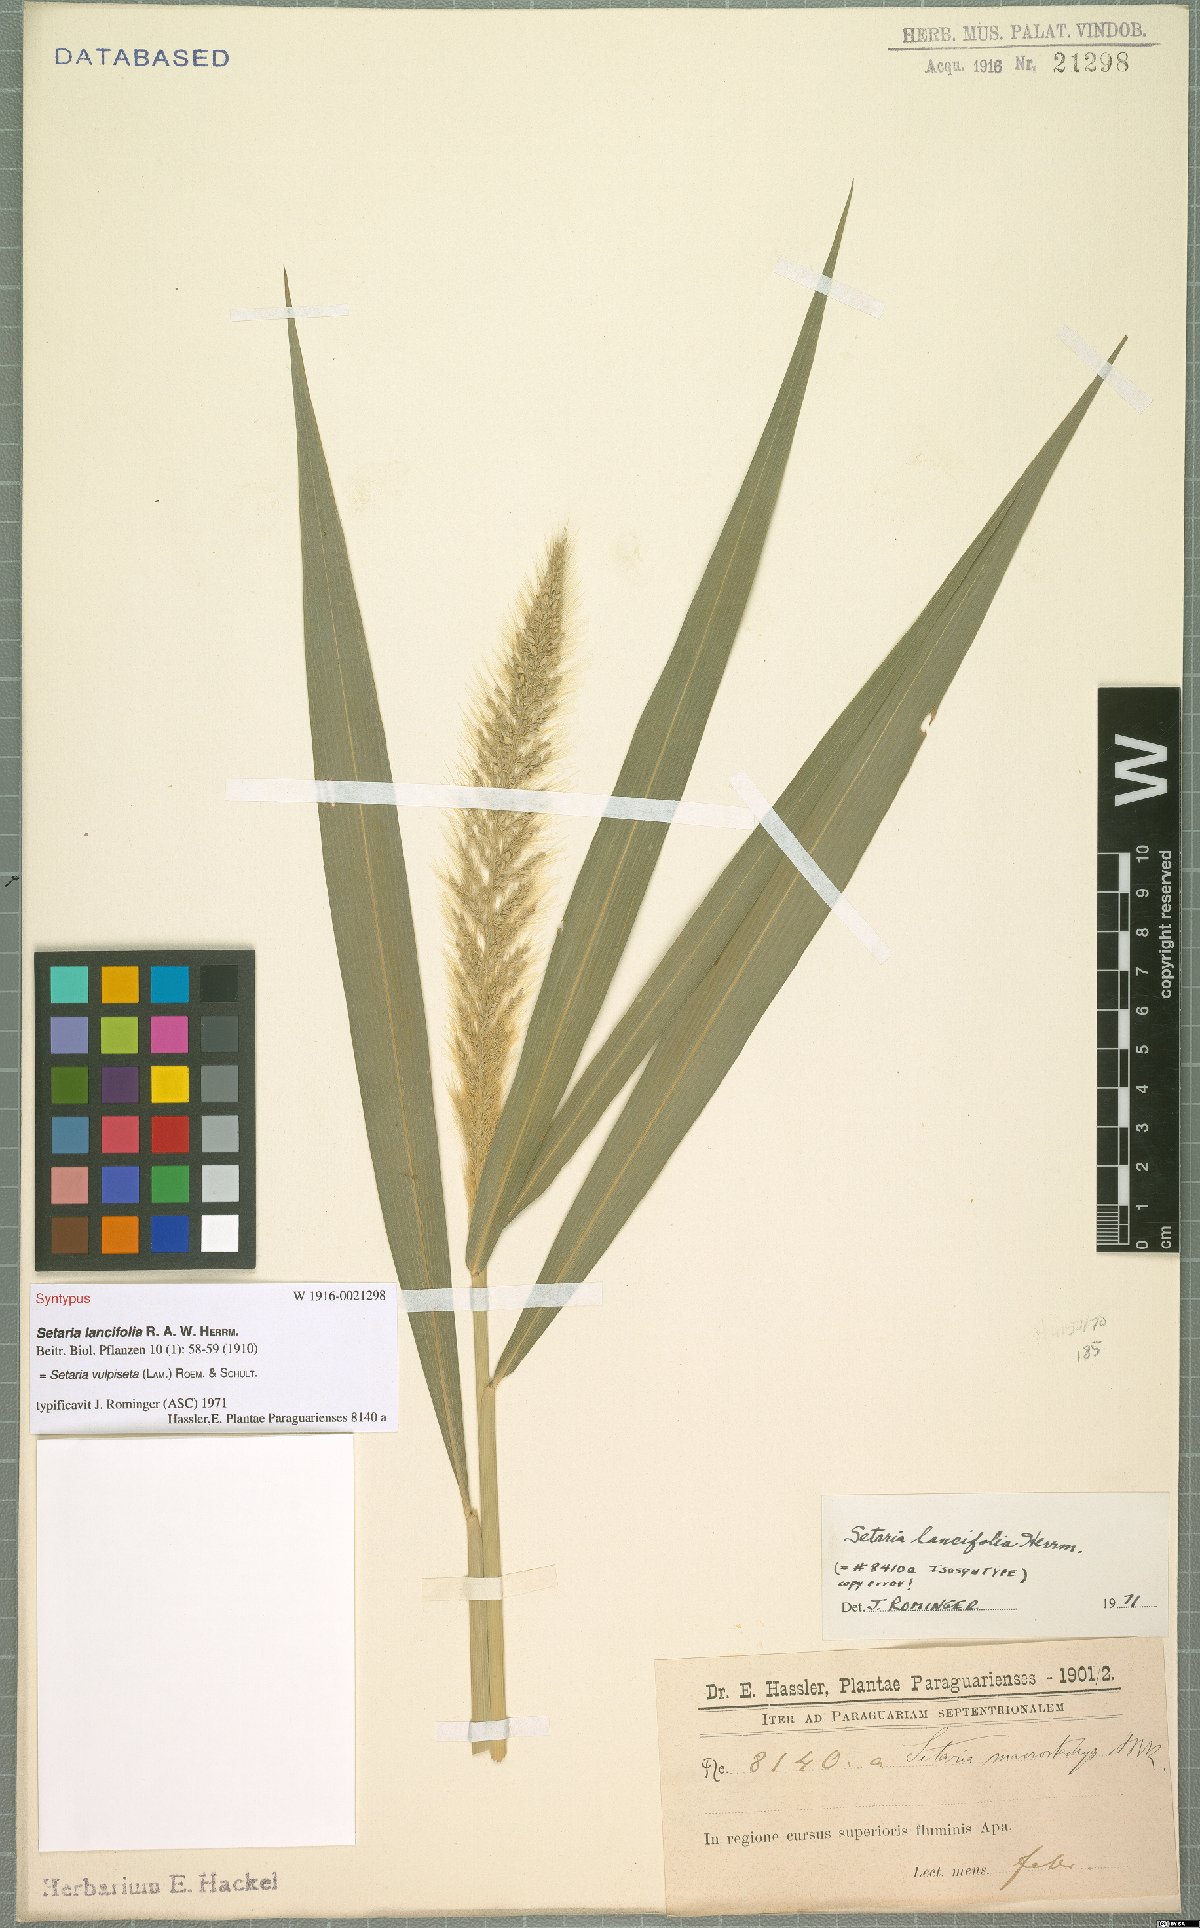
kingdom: Plantae
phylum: Tracheophyta
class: Liliopsida
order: Poales
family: Poaceae
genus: Setaria
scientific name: Setaria vulpiseta
